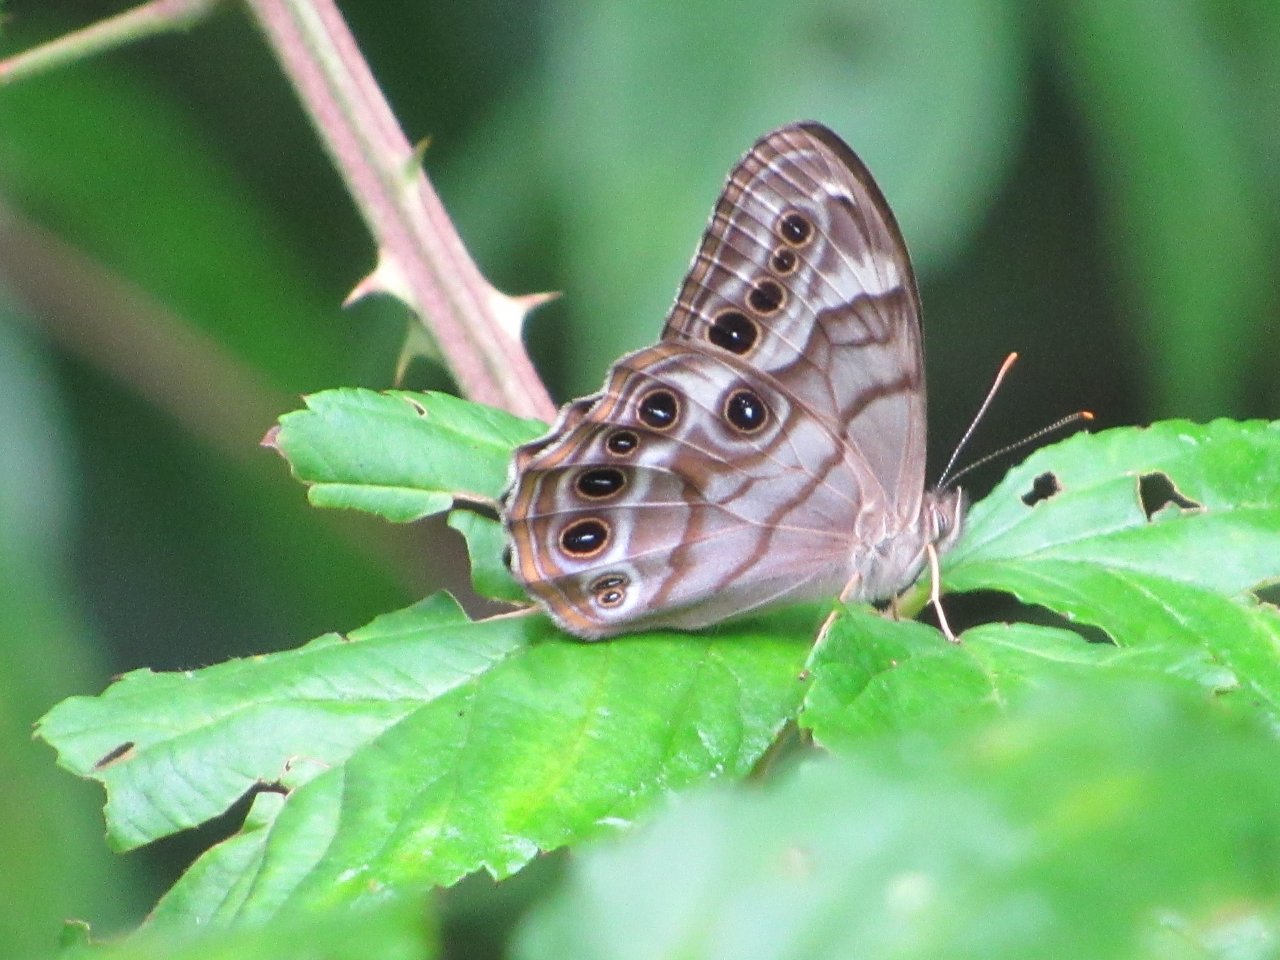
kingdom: Animalia
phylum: Arthropoda
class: Insecta
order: Lepidoptera
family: Nymphalidae
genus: Enodia
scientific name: Enodia portlandia
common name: Southern Pearly Eye
